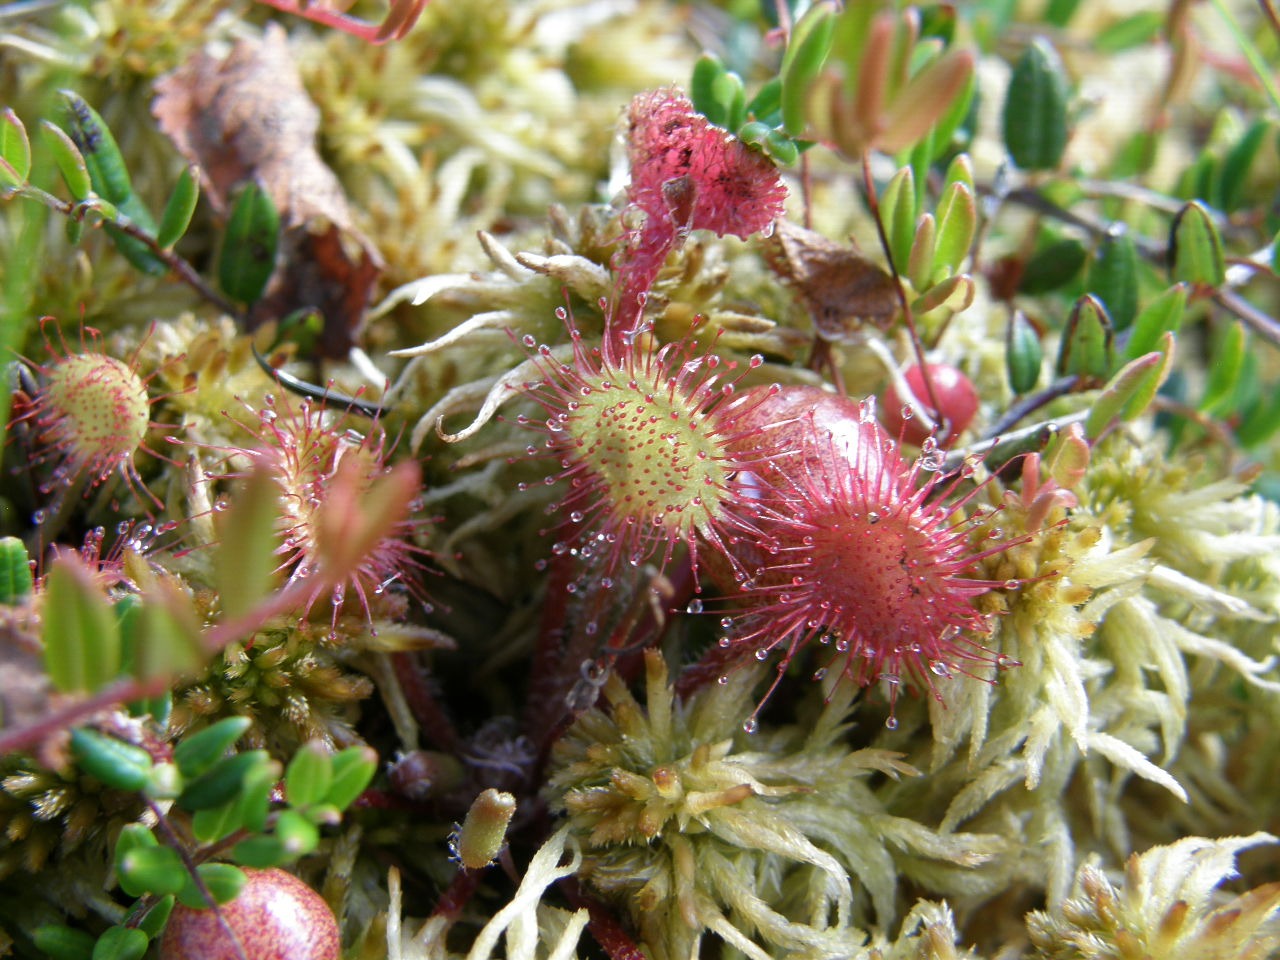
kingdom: Plantae
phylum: Tracheophyta
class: Magnoliopsida
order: Caryophyllales
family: Droseraceae
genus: Drosera
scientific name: Drosera rotundifolia
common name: Rundbladet soldug
